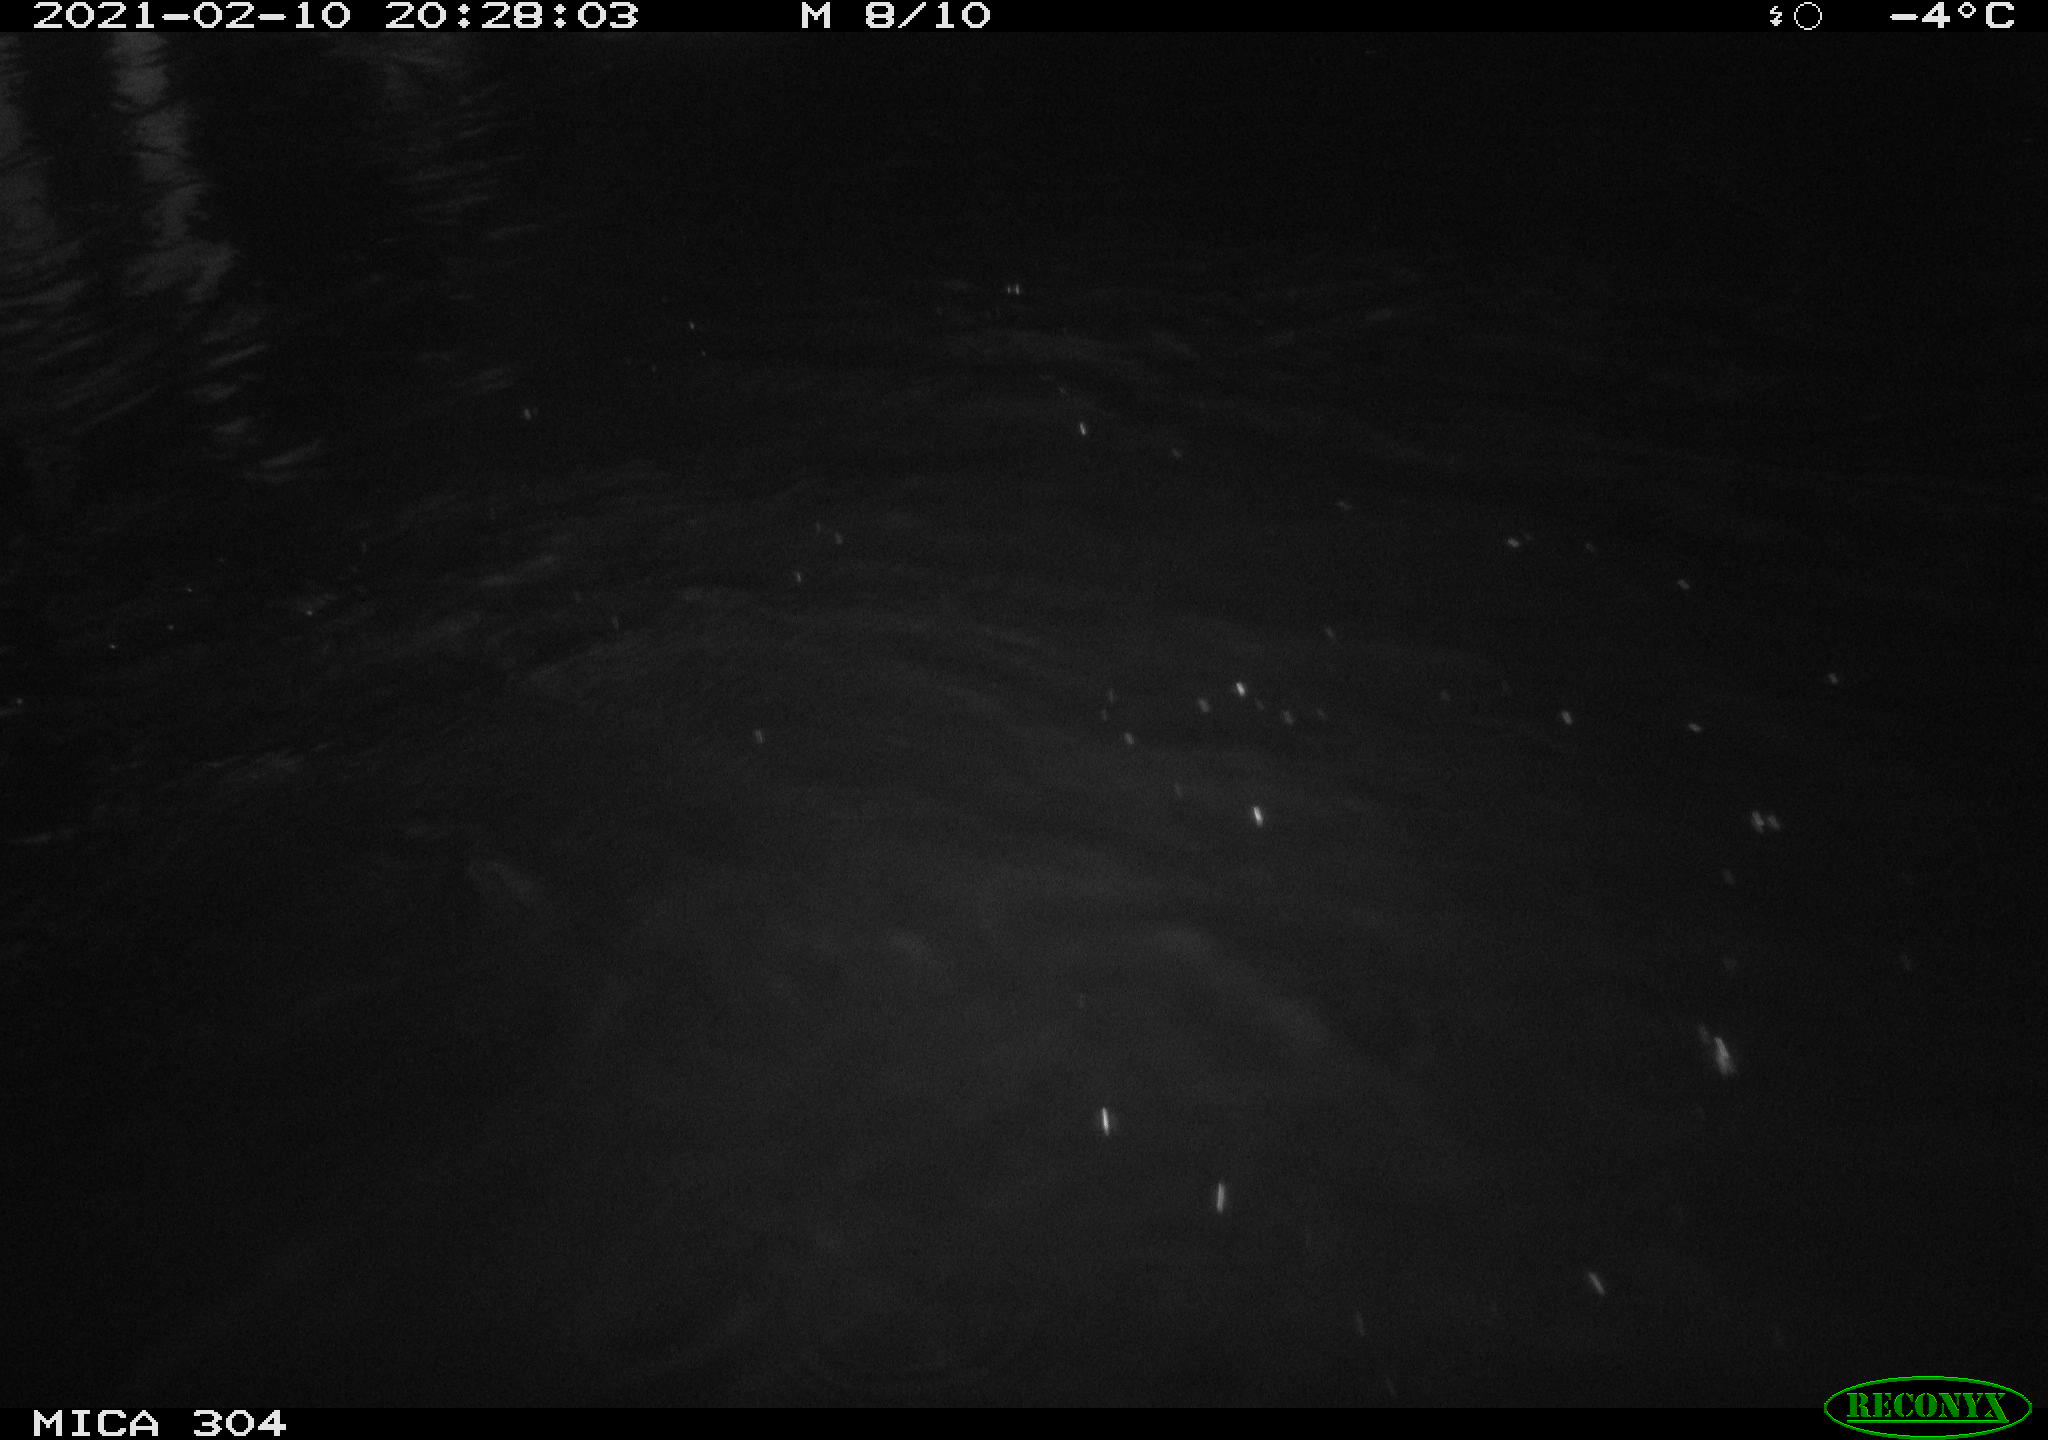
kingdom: Animalia
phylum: Chordata
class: Mammalia
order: Rodentia
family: Muridae
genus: Rattus
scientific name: Rattus norvegicus
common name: Brown rat
